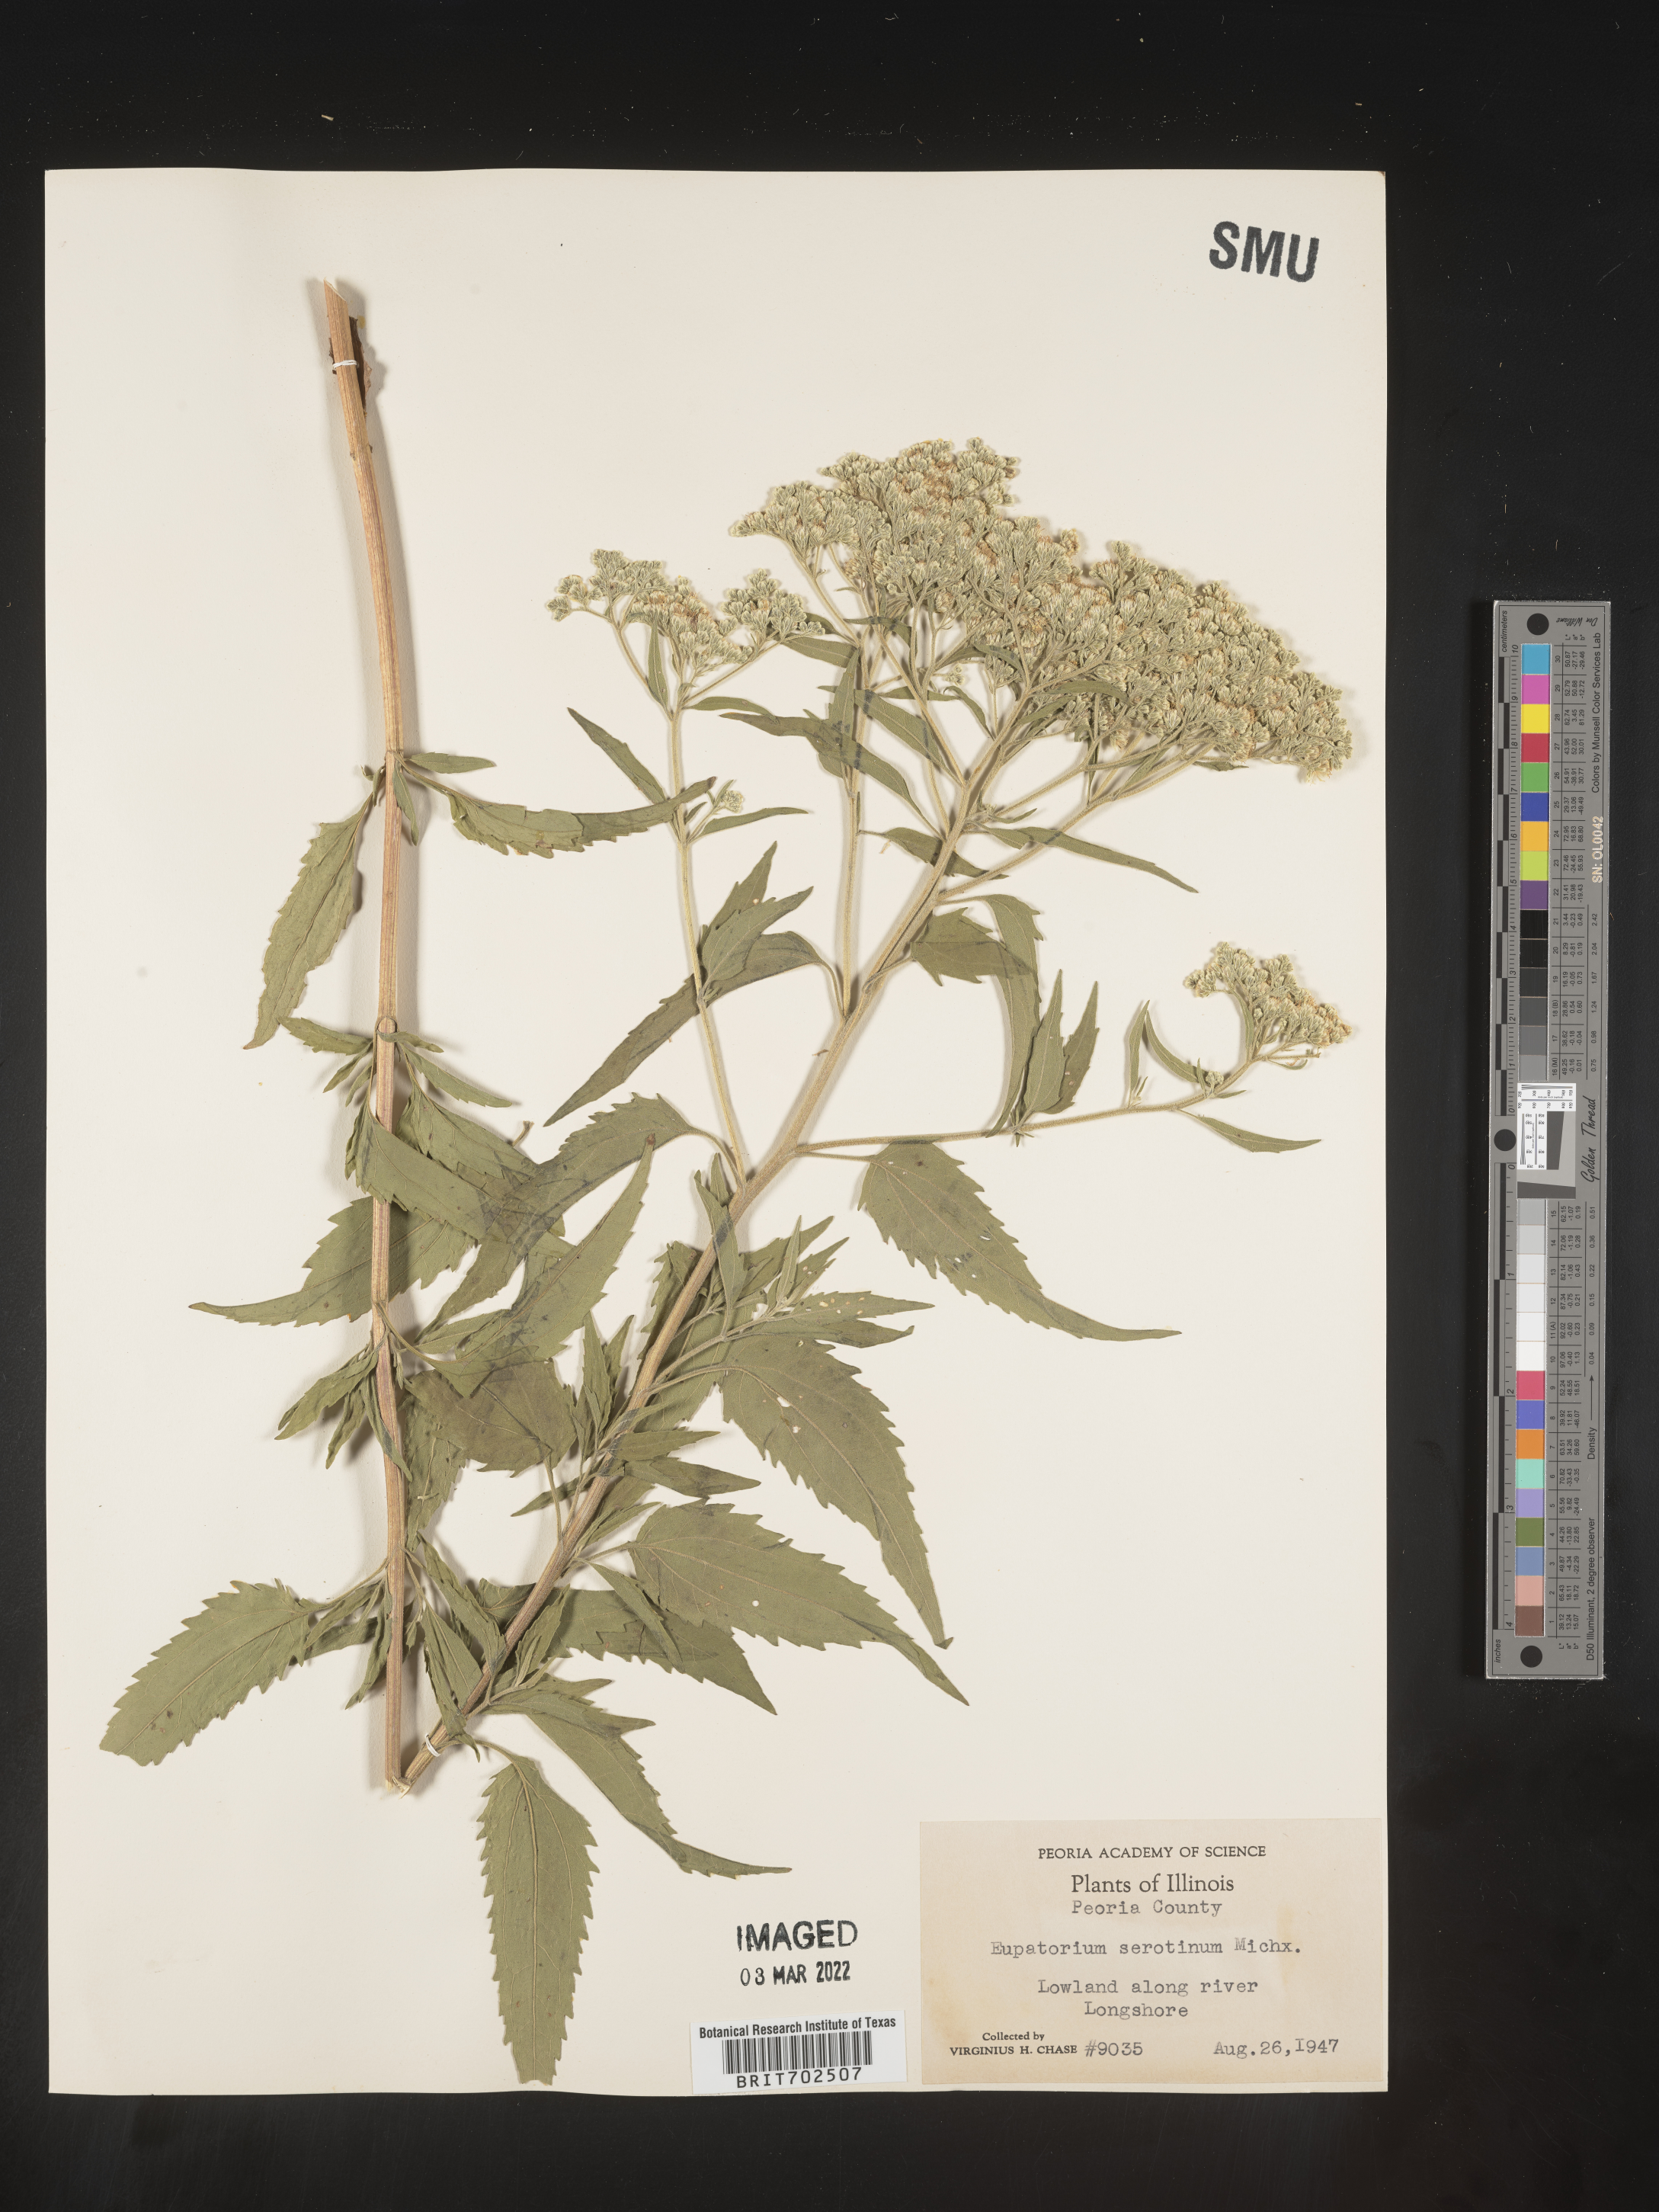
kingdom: Plantae
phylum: Tracheophyta
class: Magnoliopsida
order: Asterales
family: Asteraceae
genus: Eupatorium
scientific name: Eupatorium serotinum
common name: Late boneset
